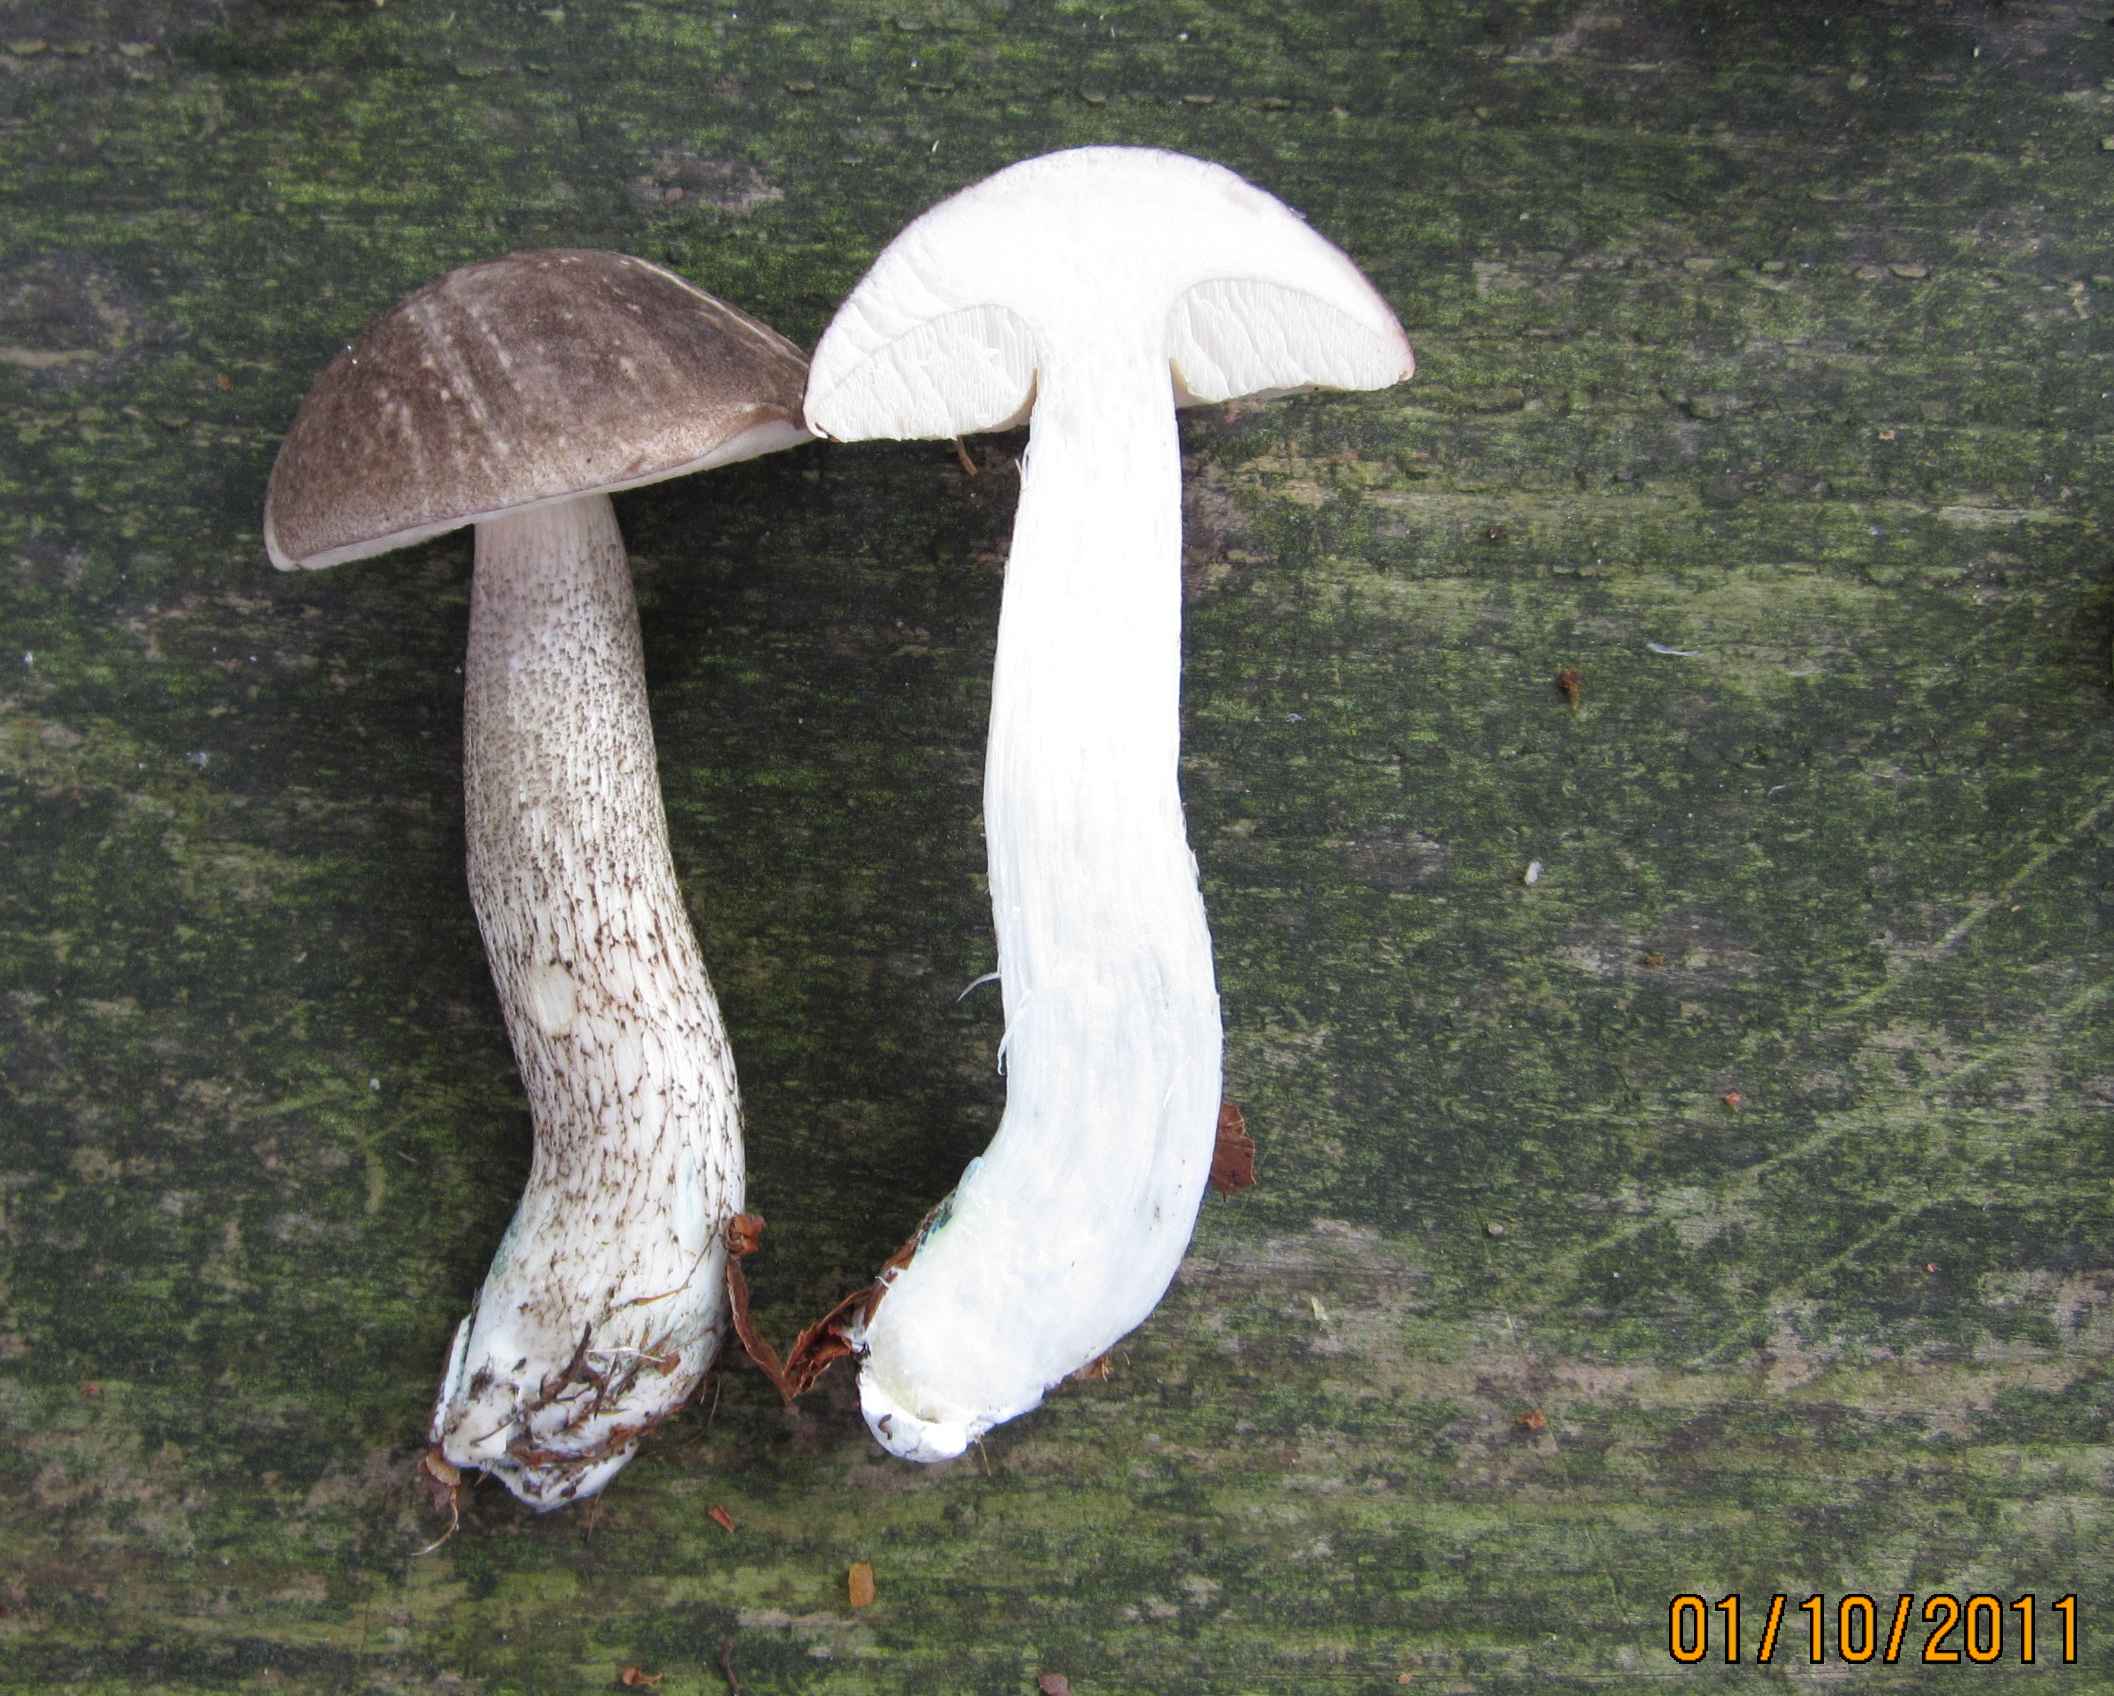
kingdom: Fungi
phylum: Basidiomycota
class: Agaricomycetes
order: Boletales
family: Boletaceae
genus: Leccinum
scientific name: Leccinum variicolor
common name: flammet skælrørhat
